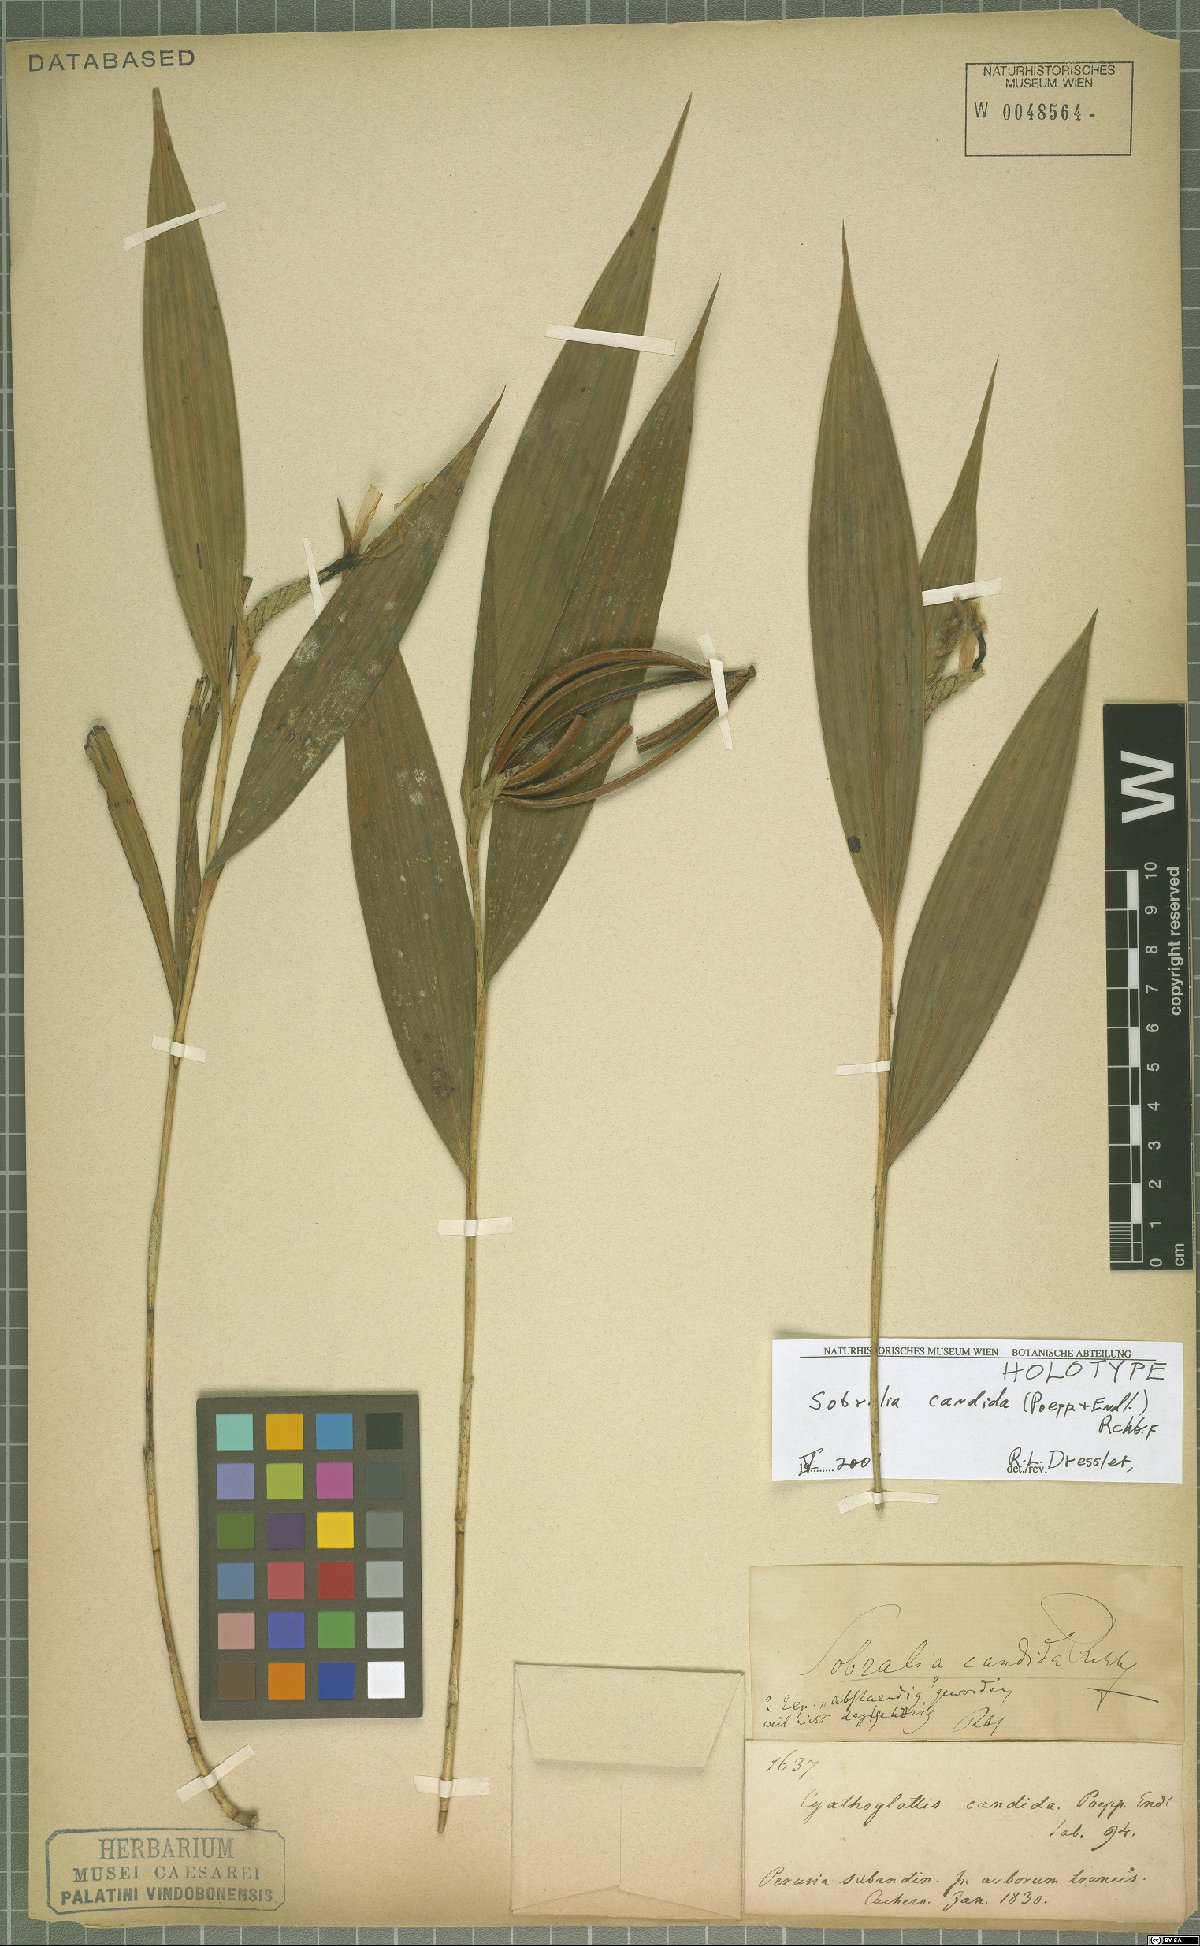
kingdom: Plantae
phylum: Tracheophyta
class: Liliopsida
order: Asparagales
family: Orchidaceae
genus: Sobralia
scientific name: Sobralia candida
